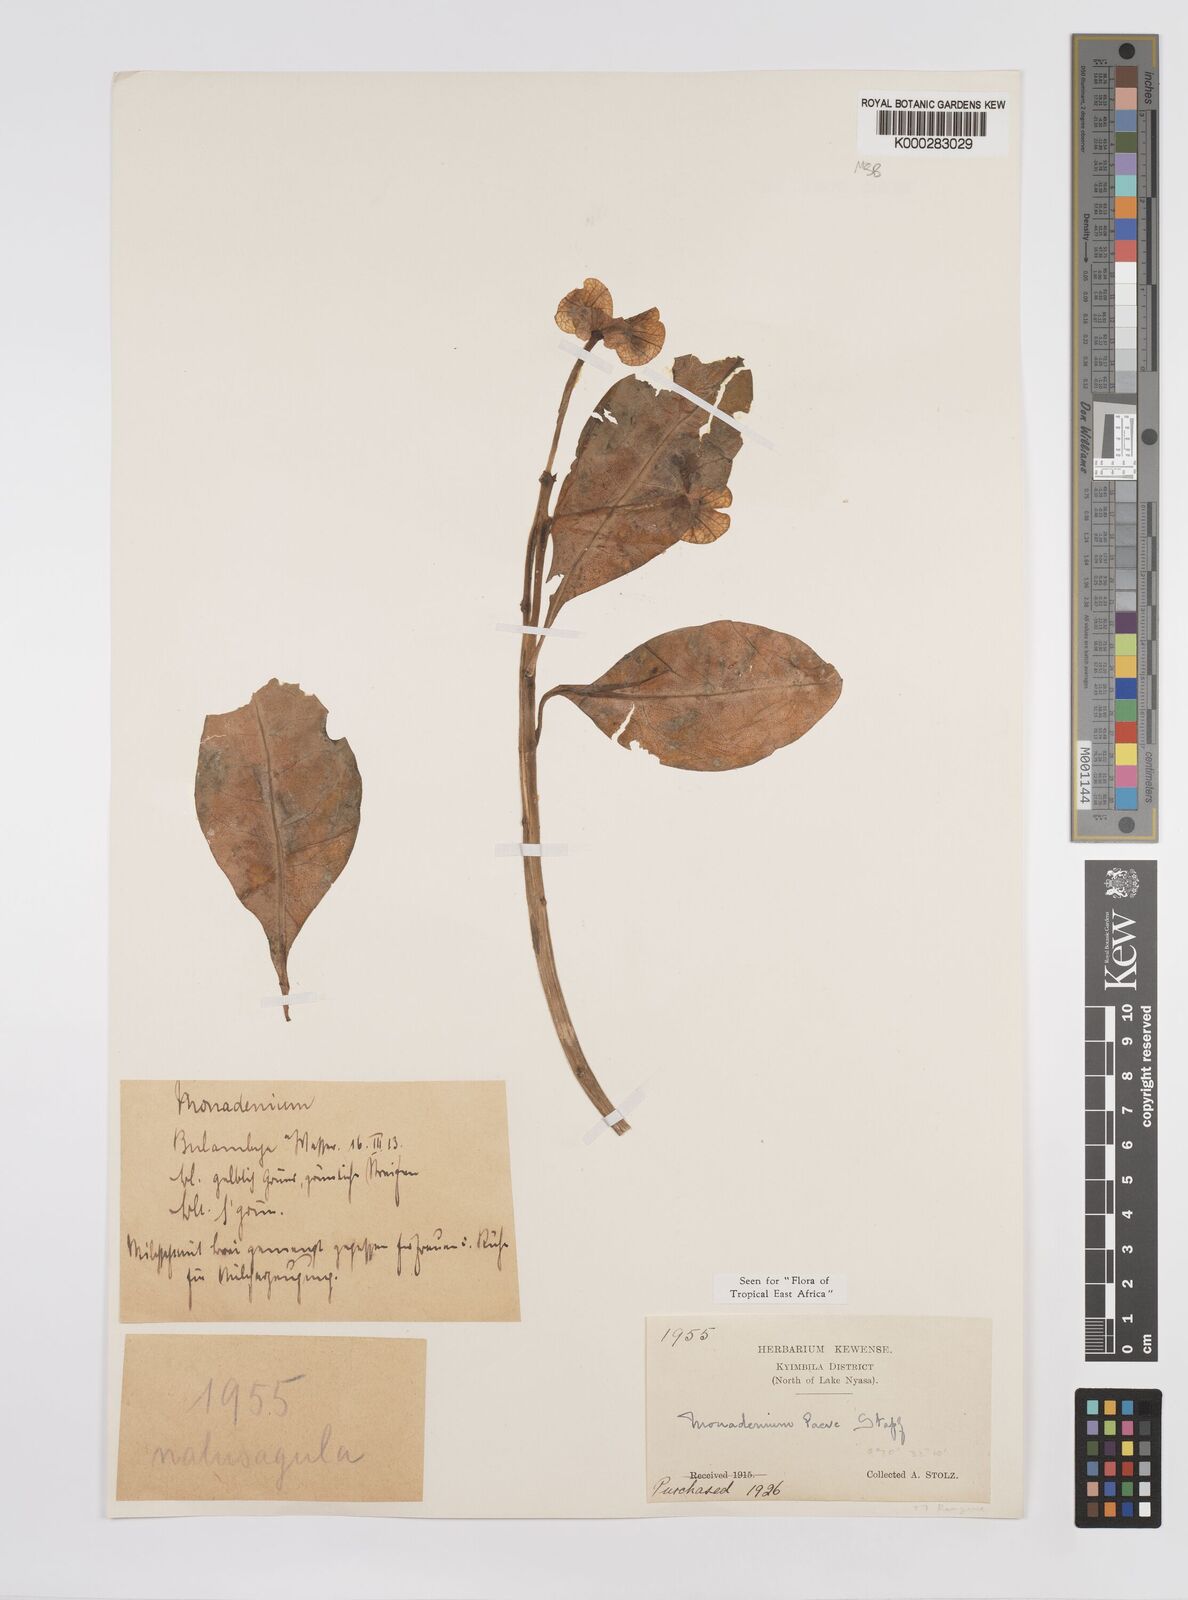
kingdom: Plantae
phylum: Tracheophyta
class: Magnoliopsida
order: Malpighiales
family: Euphorbiaceae
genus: Euphorbia
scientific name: Euphorbia pseudolaevis
